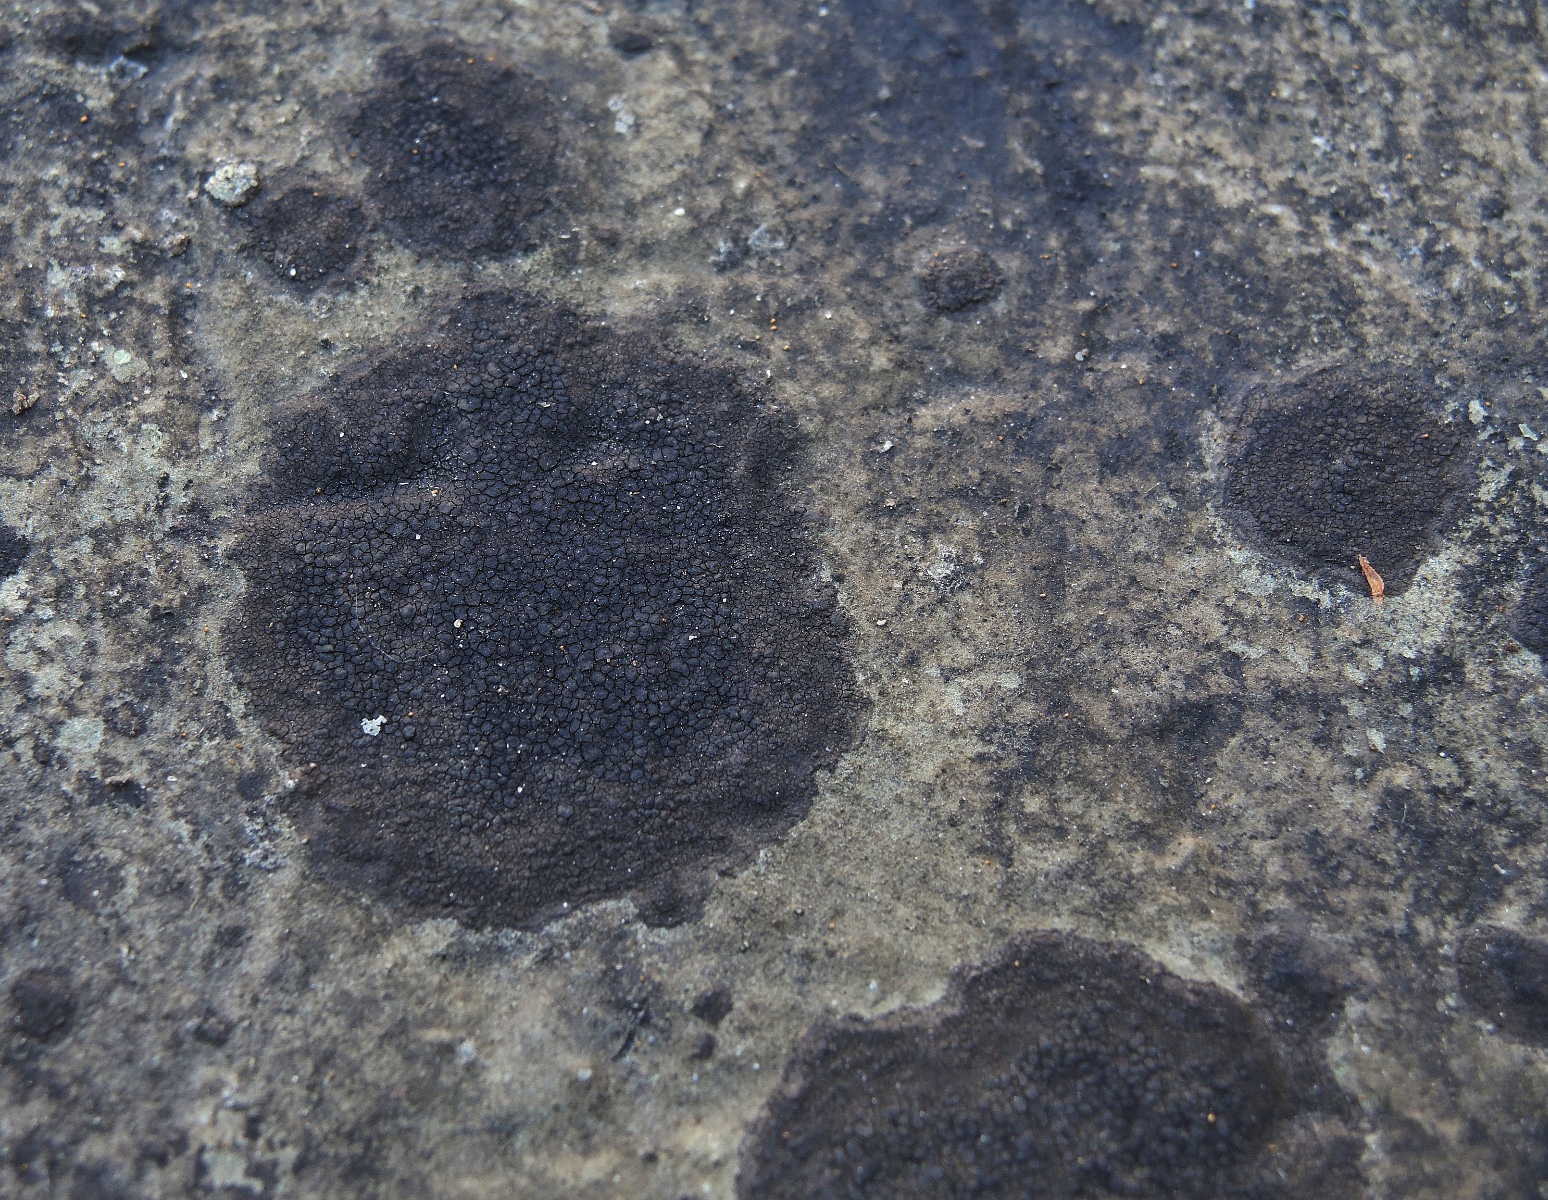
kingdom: Fungi
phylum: Ascomycota
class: Eurotiomycetes
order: Verrucariales
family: Verrucariaceae
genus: Verrucaria
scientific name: Verrucaria nigrescens
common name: sortbrun vortelav
